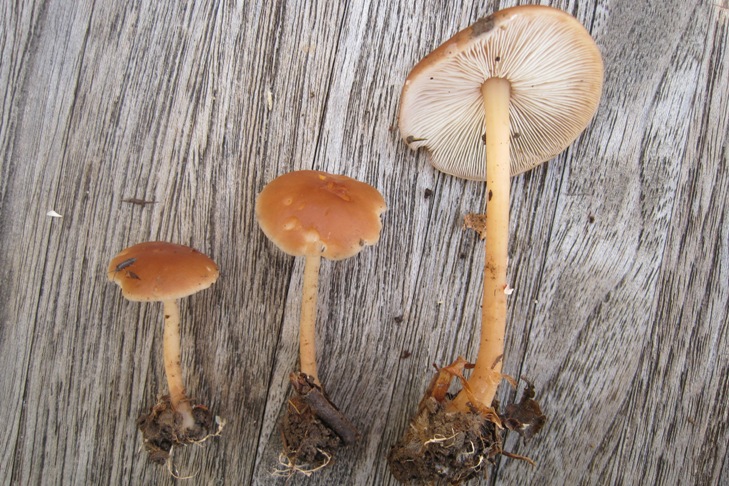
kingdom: Fungi
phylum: Basidiomycota
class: Agaricomycetes
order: Agaricales
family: Omphalotaceae
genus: Gymnopus
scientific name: Gymnopus dryophilus
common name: løv-fladhat
